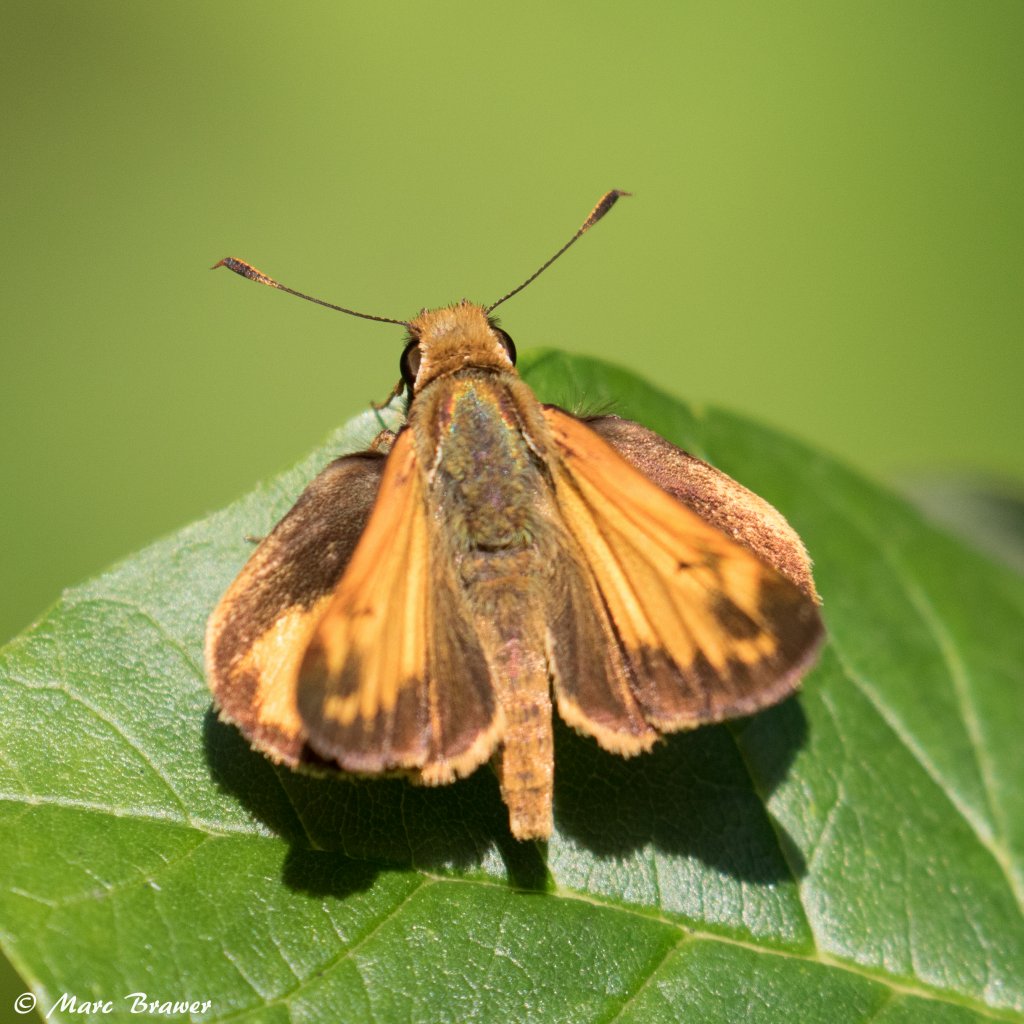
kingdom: Animalia
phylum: Arthropoda
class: Insecta
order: Lepidoptera
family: Hesperiidae
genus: Lon
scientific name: Lon zabulon
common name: Zabulon Skipper
